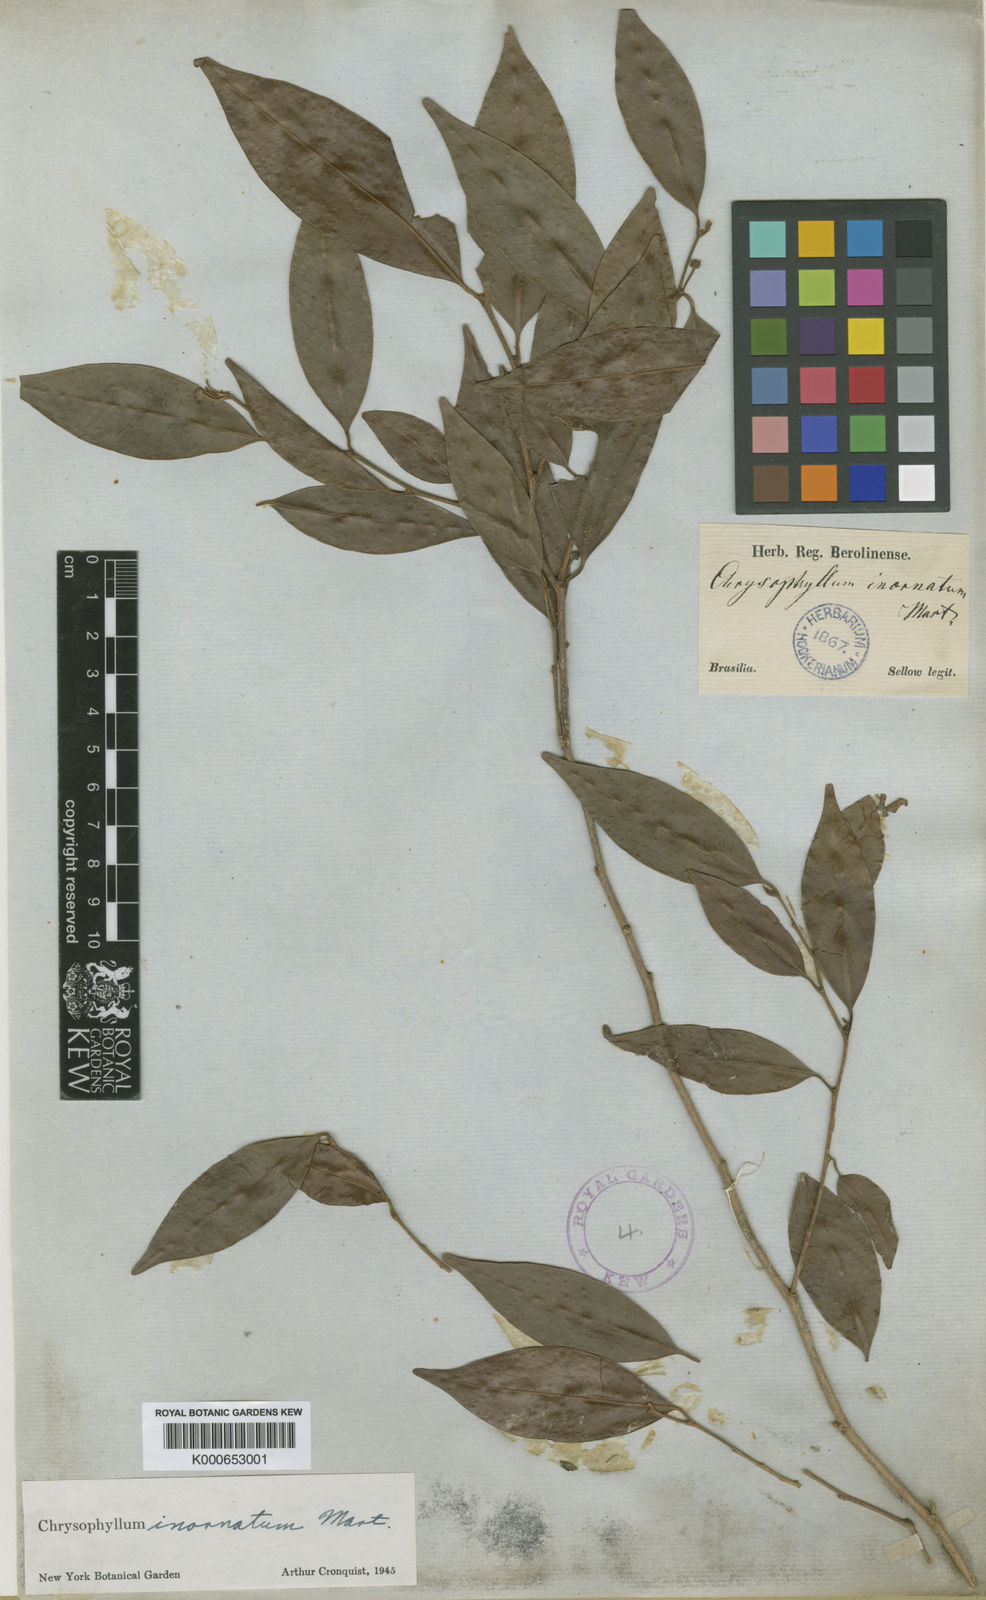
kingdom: Plantae
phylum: Tracheophyta
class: Magnoliopsida
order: Ericales
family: Sapotaceae
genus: Chrysophyllum
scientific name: Chrysophyllum inornatum
